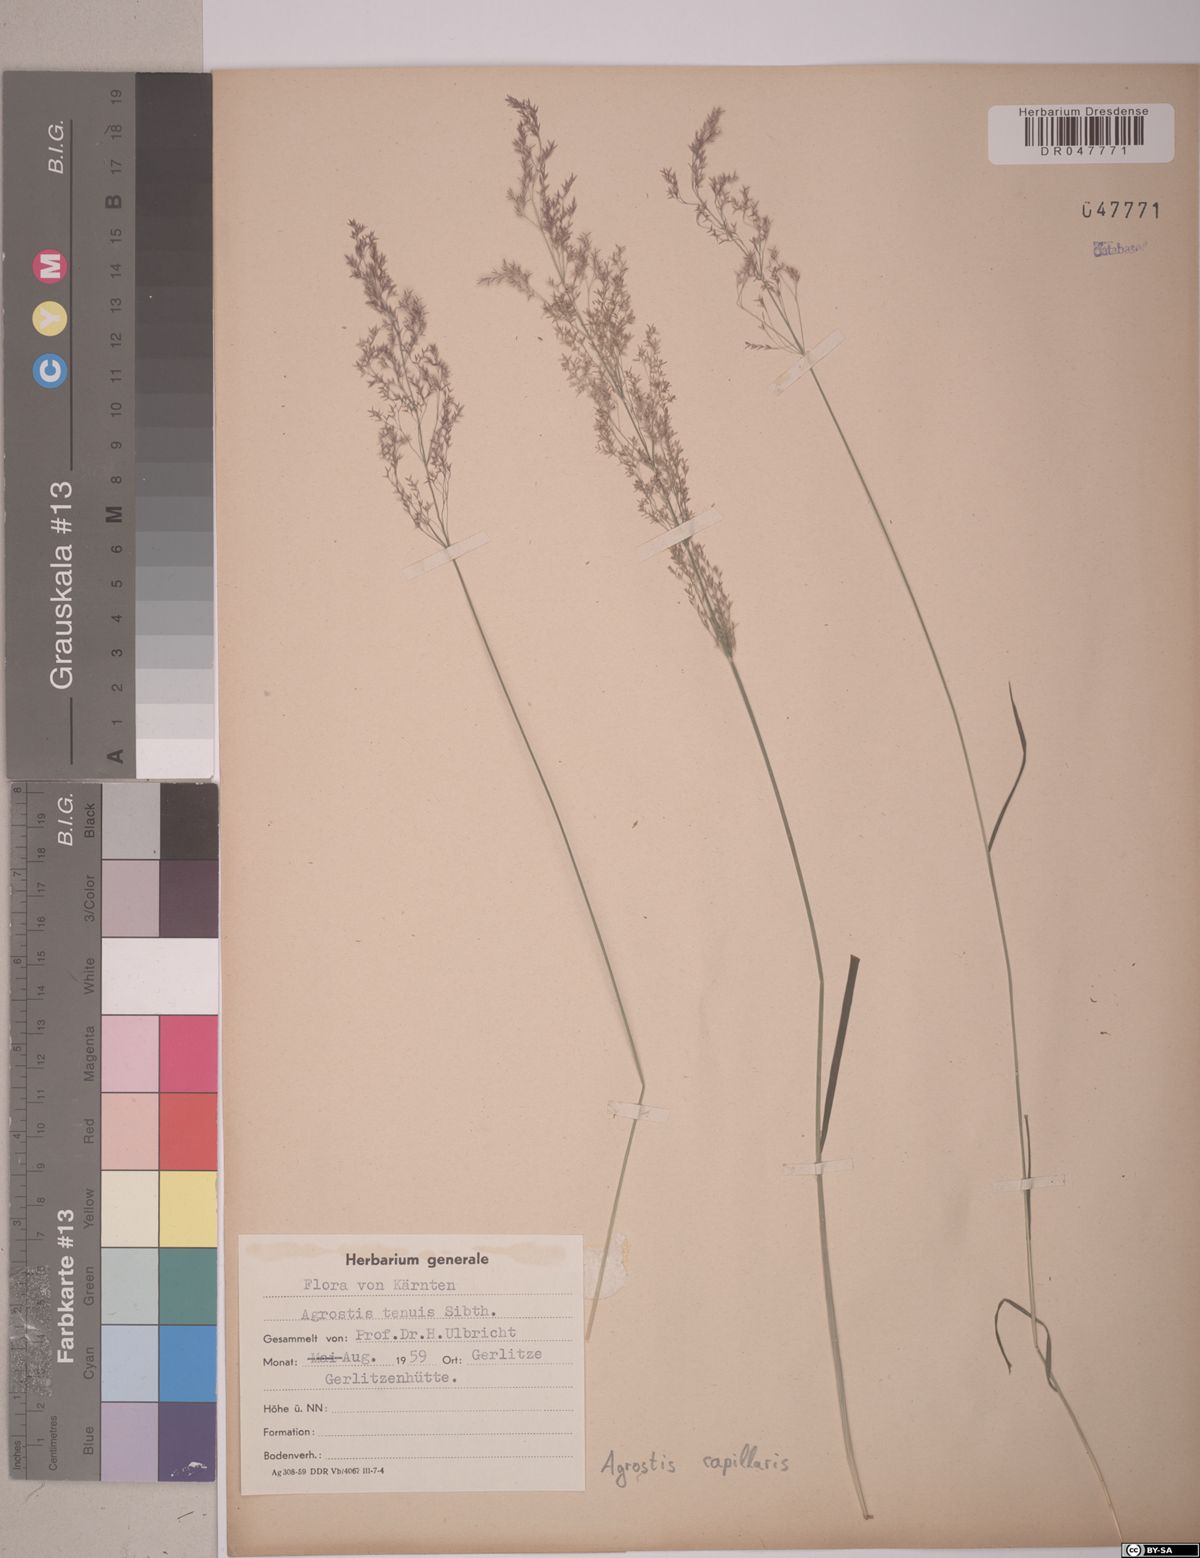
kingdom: Plantae
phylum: Tracheophyta
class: Liliopsida
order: Poales
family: Poaceae
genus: Agrostis
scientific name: Agrostis capillaris
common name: Colonial bentgrass
